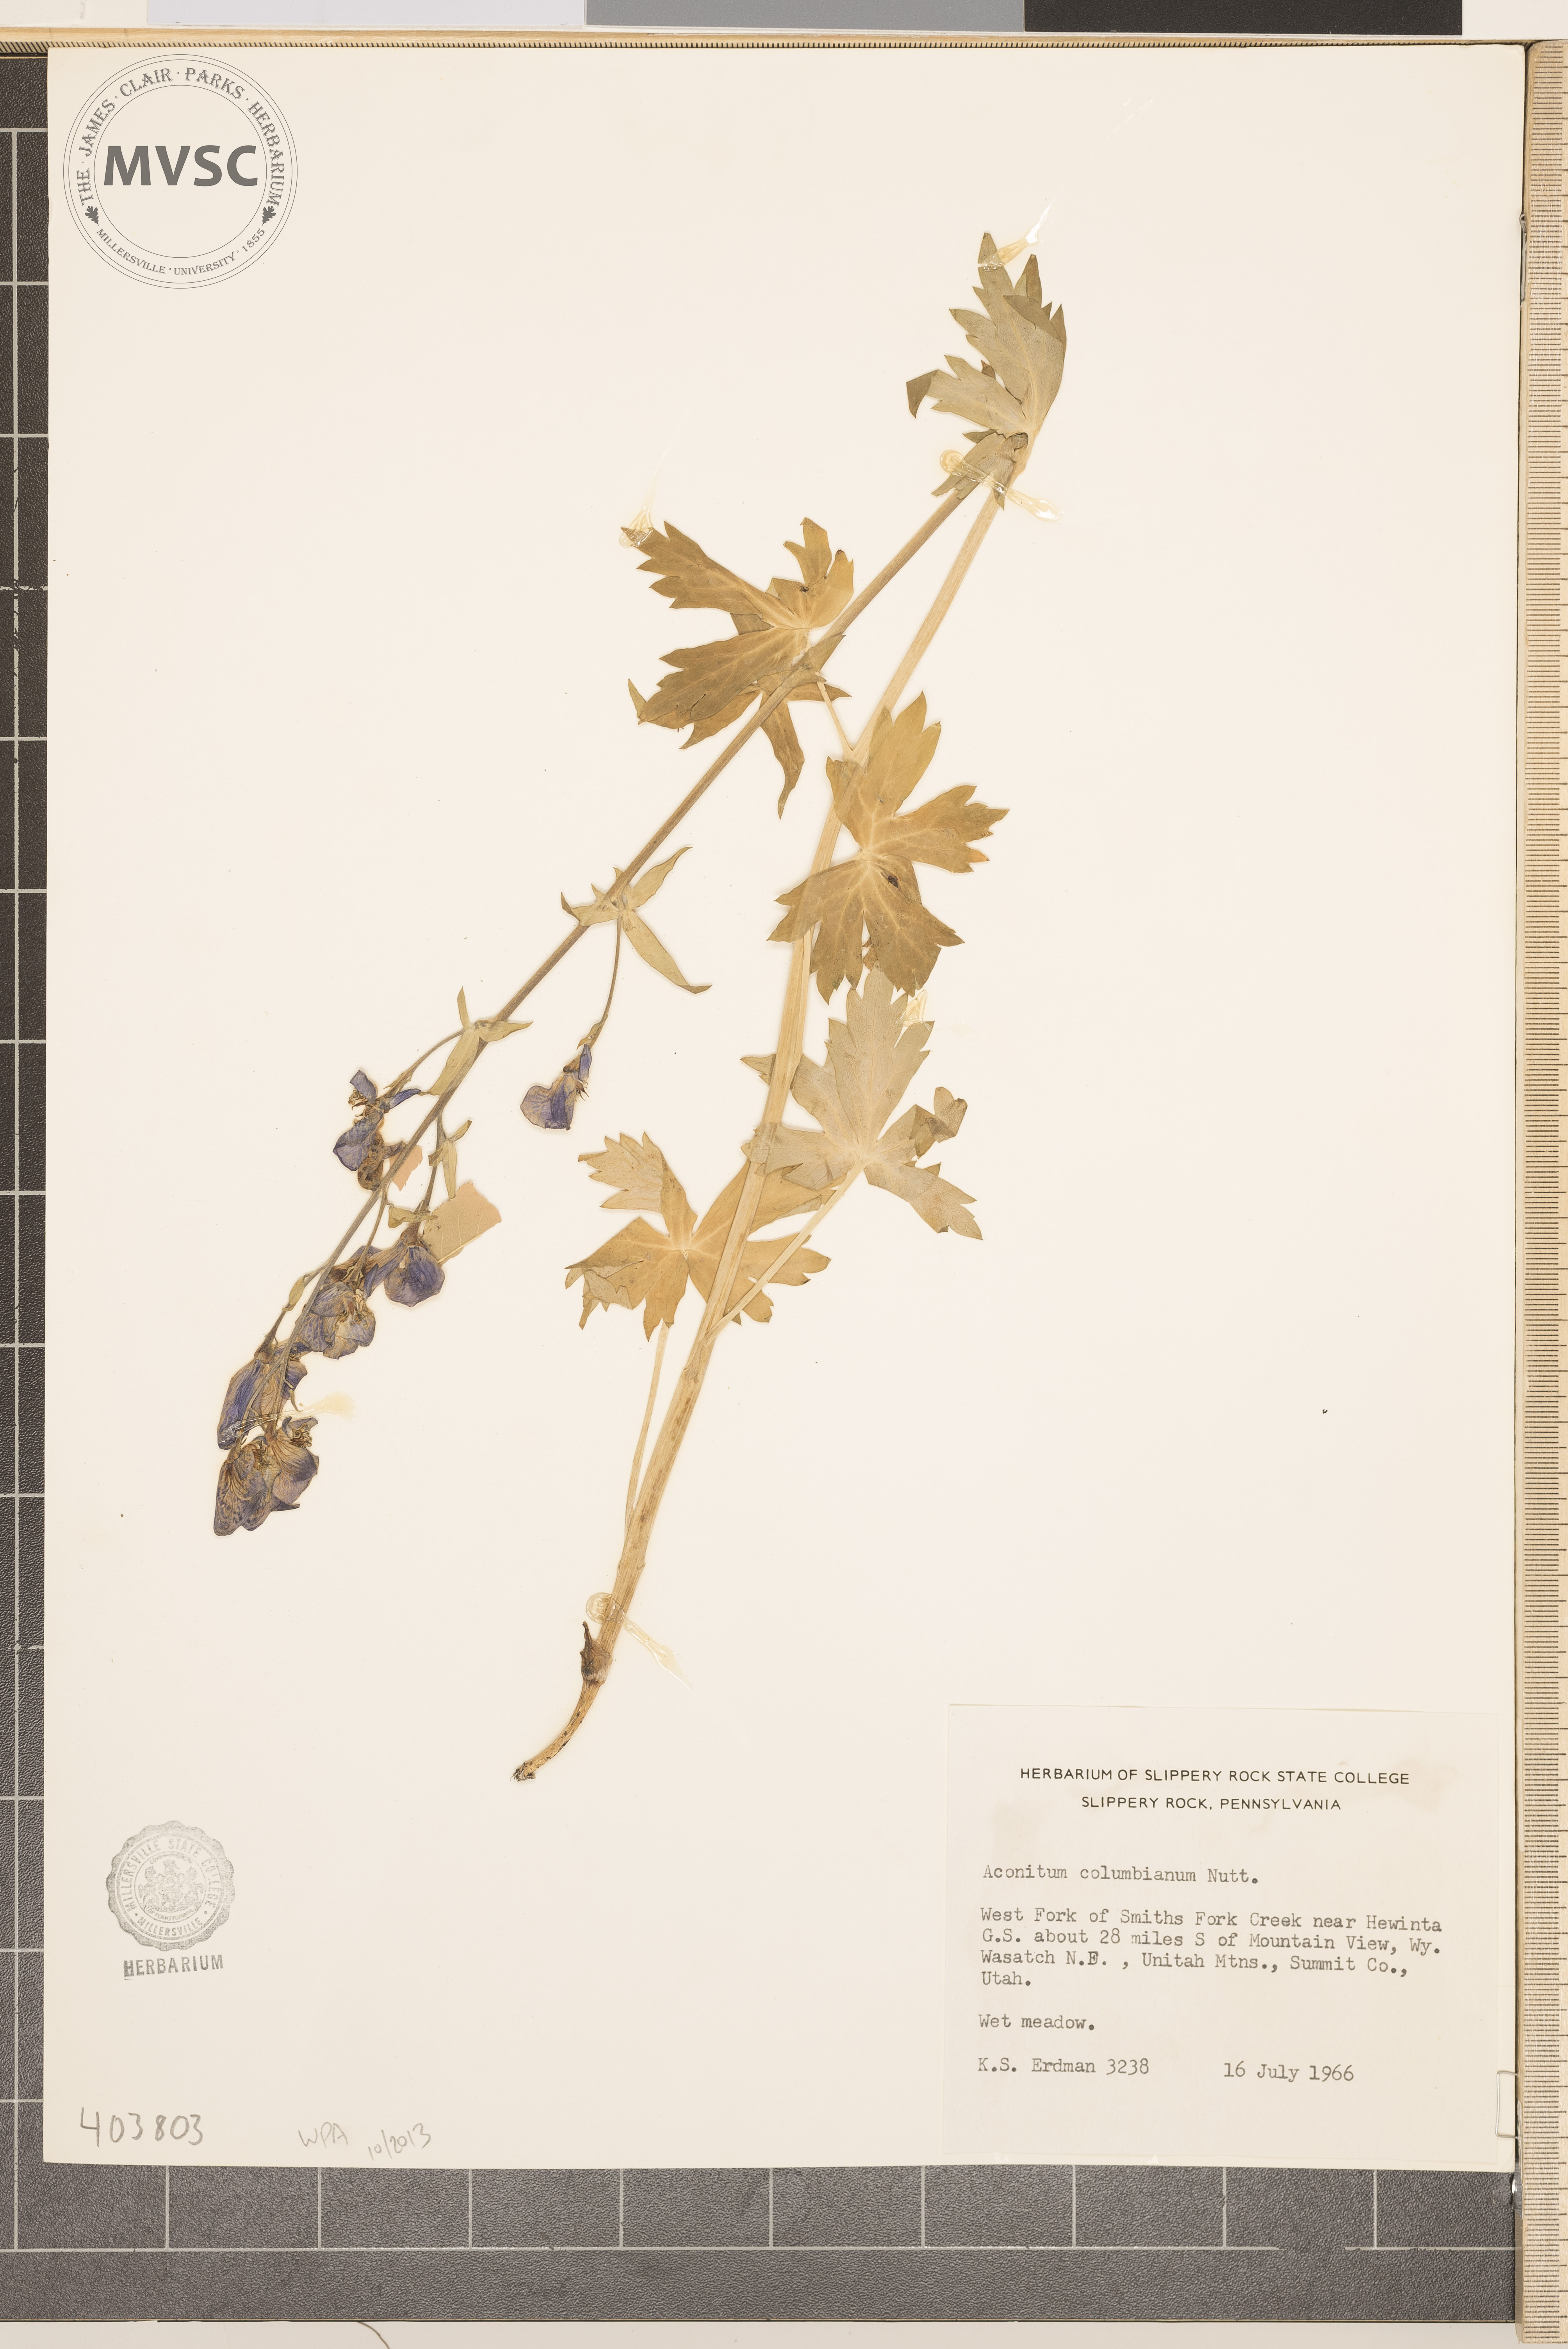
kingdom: Plantae
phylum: Tracheophyta
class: Magnoliopsida
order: Ranunculales
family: Ranunculaceae
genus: Aconitum
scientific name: Aconitum columbianum
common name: Monkshood
